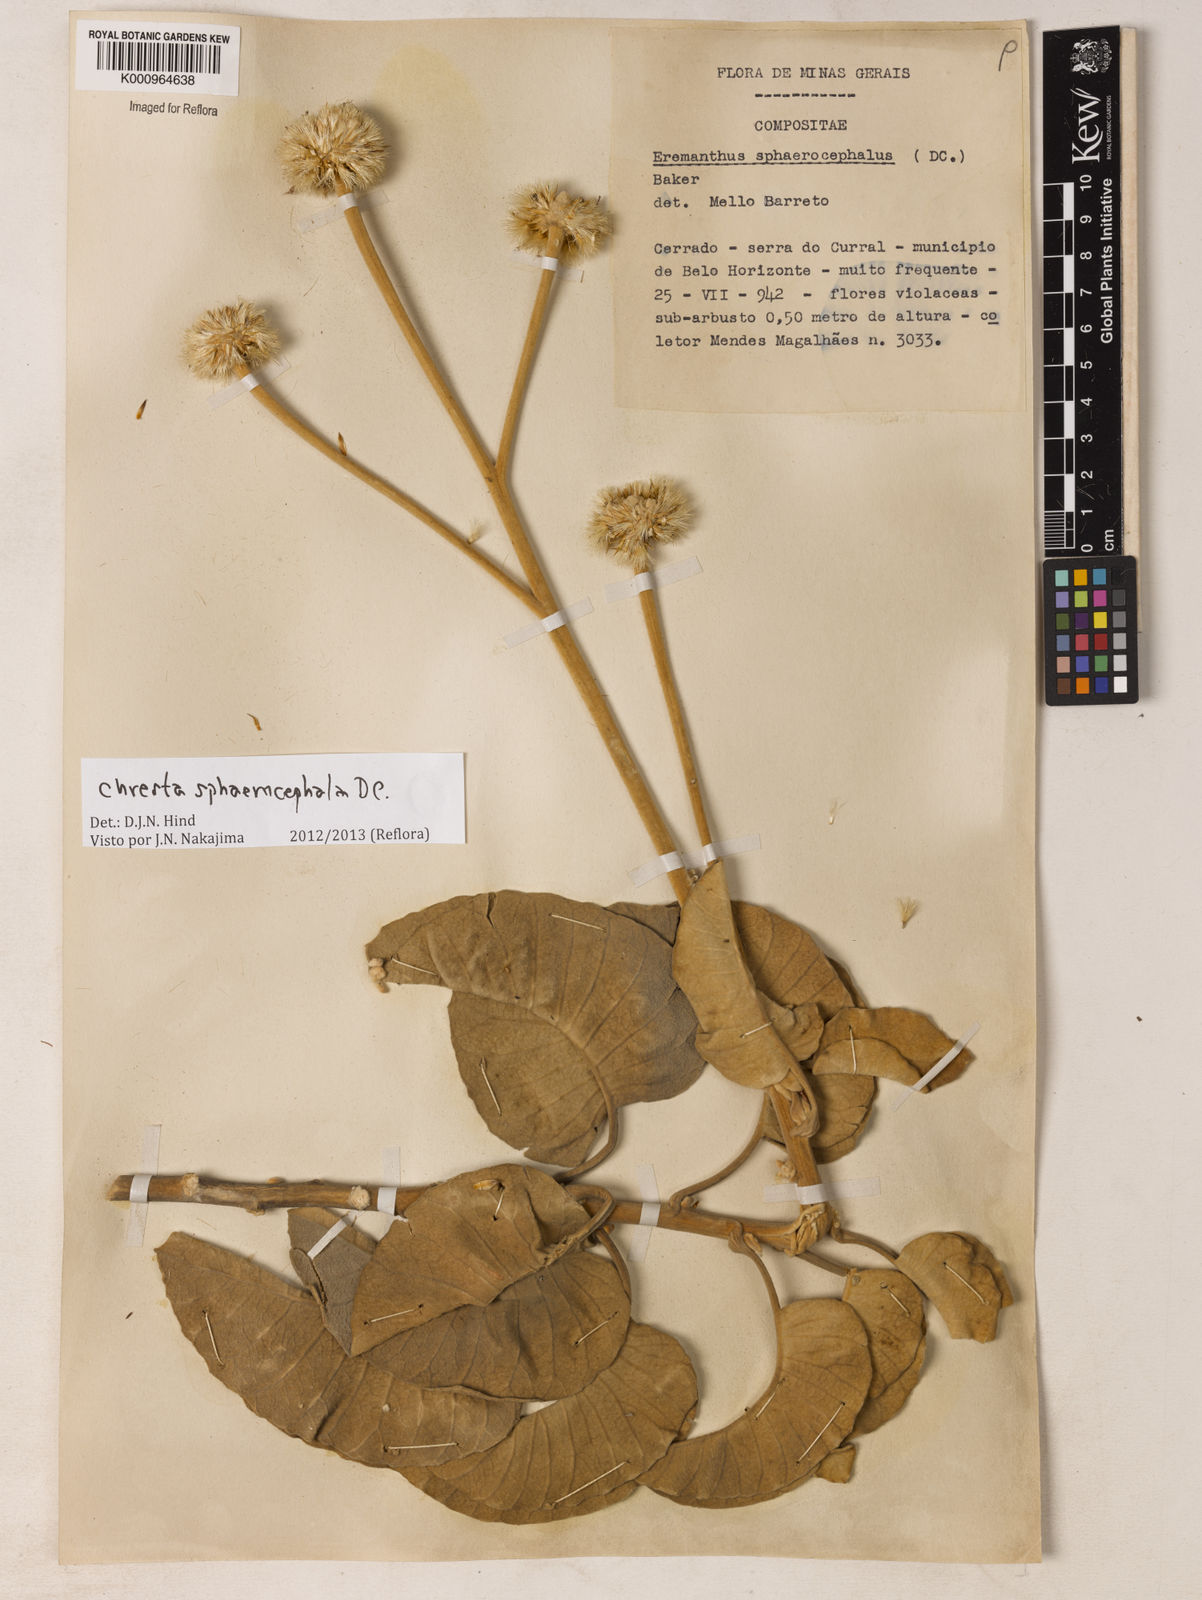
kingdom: Plantae
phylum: Tracheophyta
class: Magnoliopsida
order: Asterales
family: Asteraceae
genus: Chresta
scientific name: Chresta sphaerocephala
